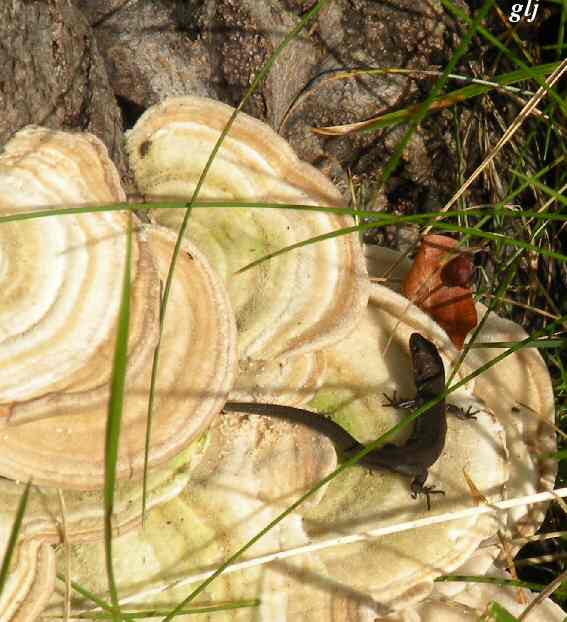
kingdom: Fungi
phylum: Basidiomycota
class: Agaricomycetes
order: Polyporales
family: Polyporaceae
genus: Trametes
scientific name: Trametes hirsuta
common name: håret læderporesvamp
